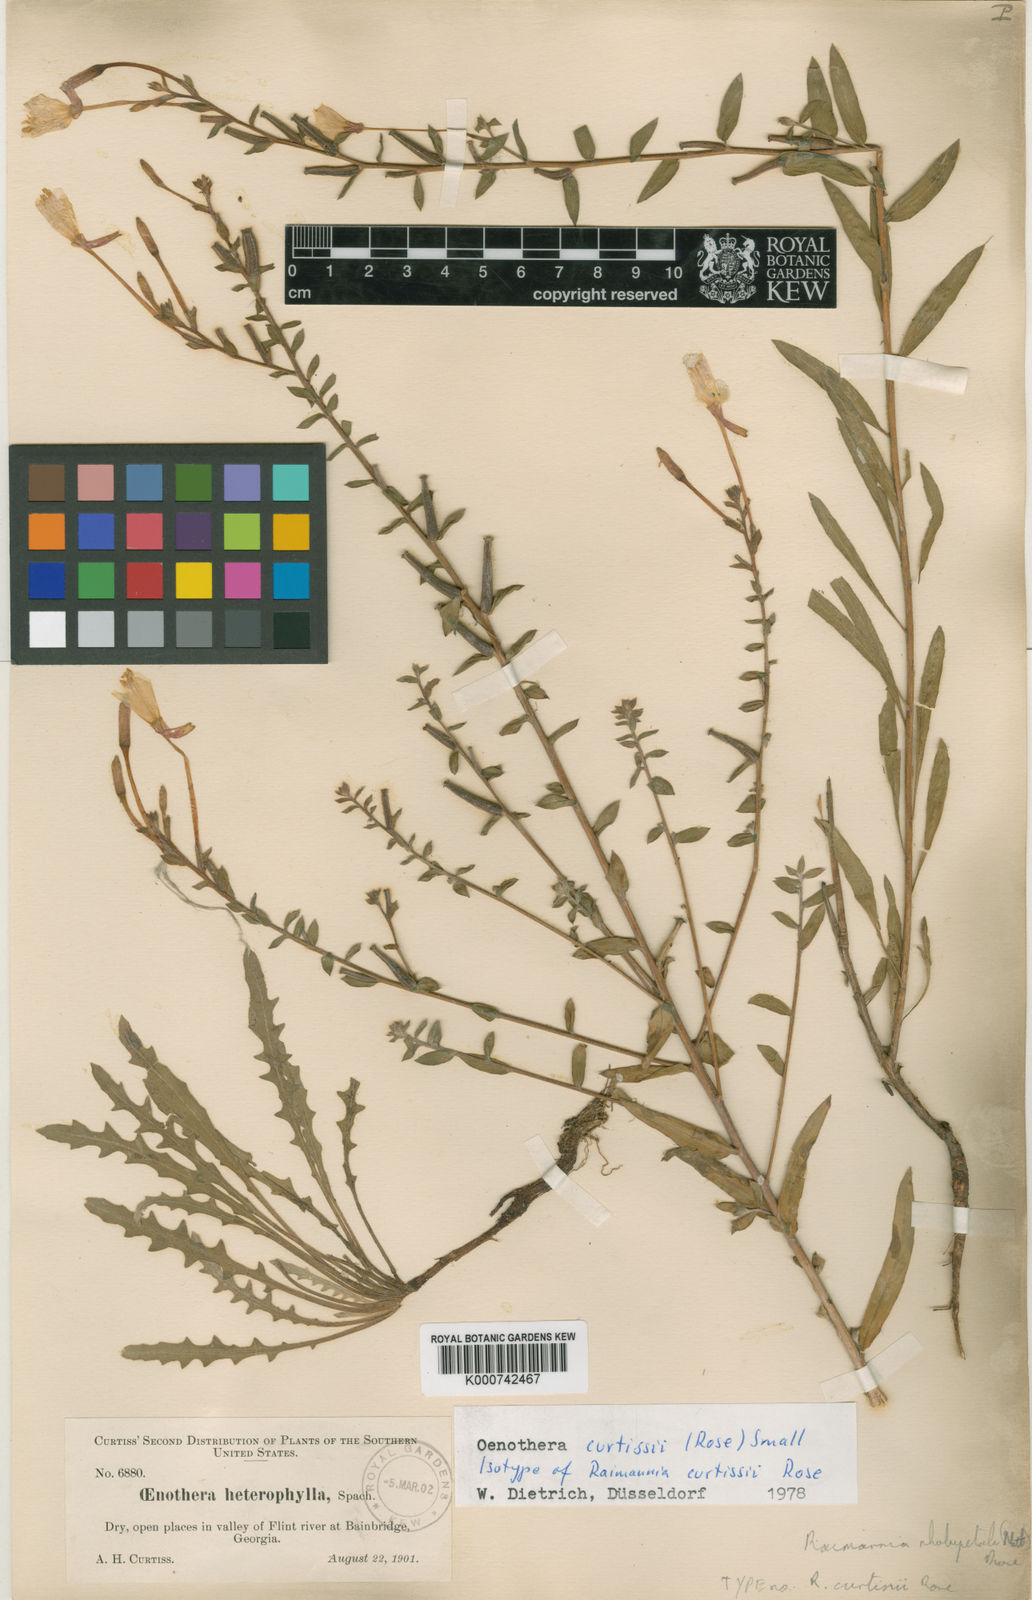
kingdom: Plantae
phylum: Tracheophyta
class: Magnoliopsida
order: Myrtales
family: Onagraceae
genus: Oenothera
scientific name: Oenothera curtissii
